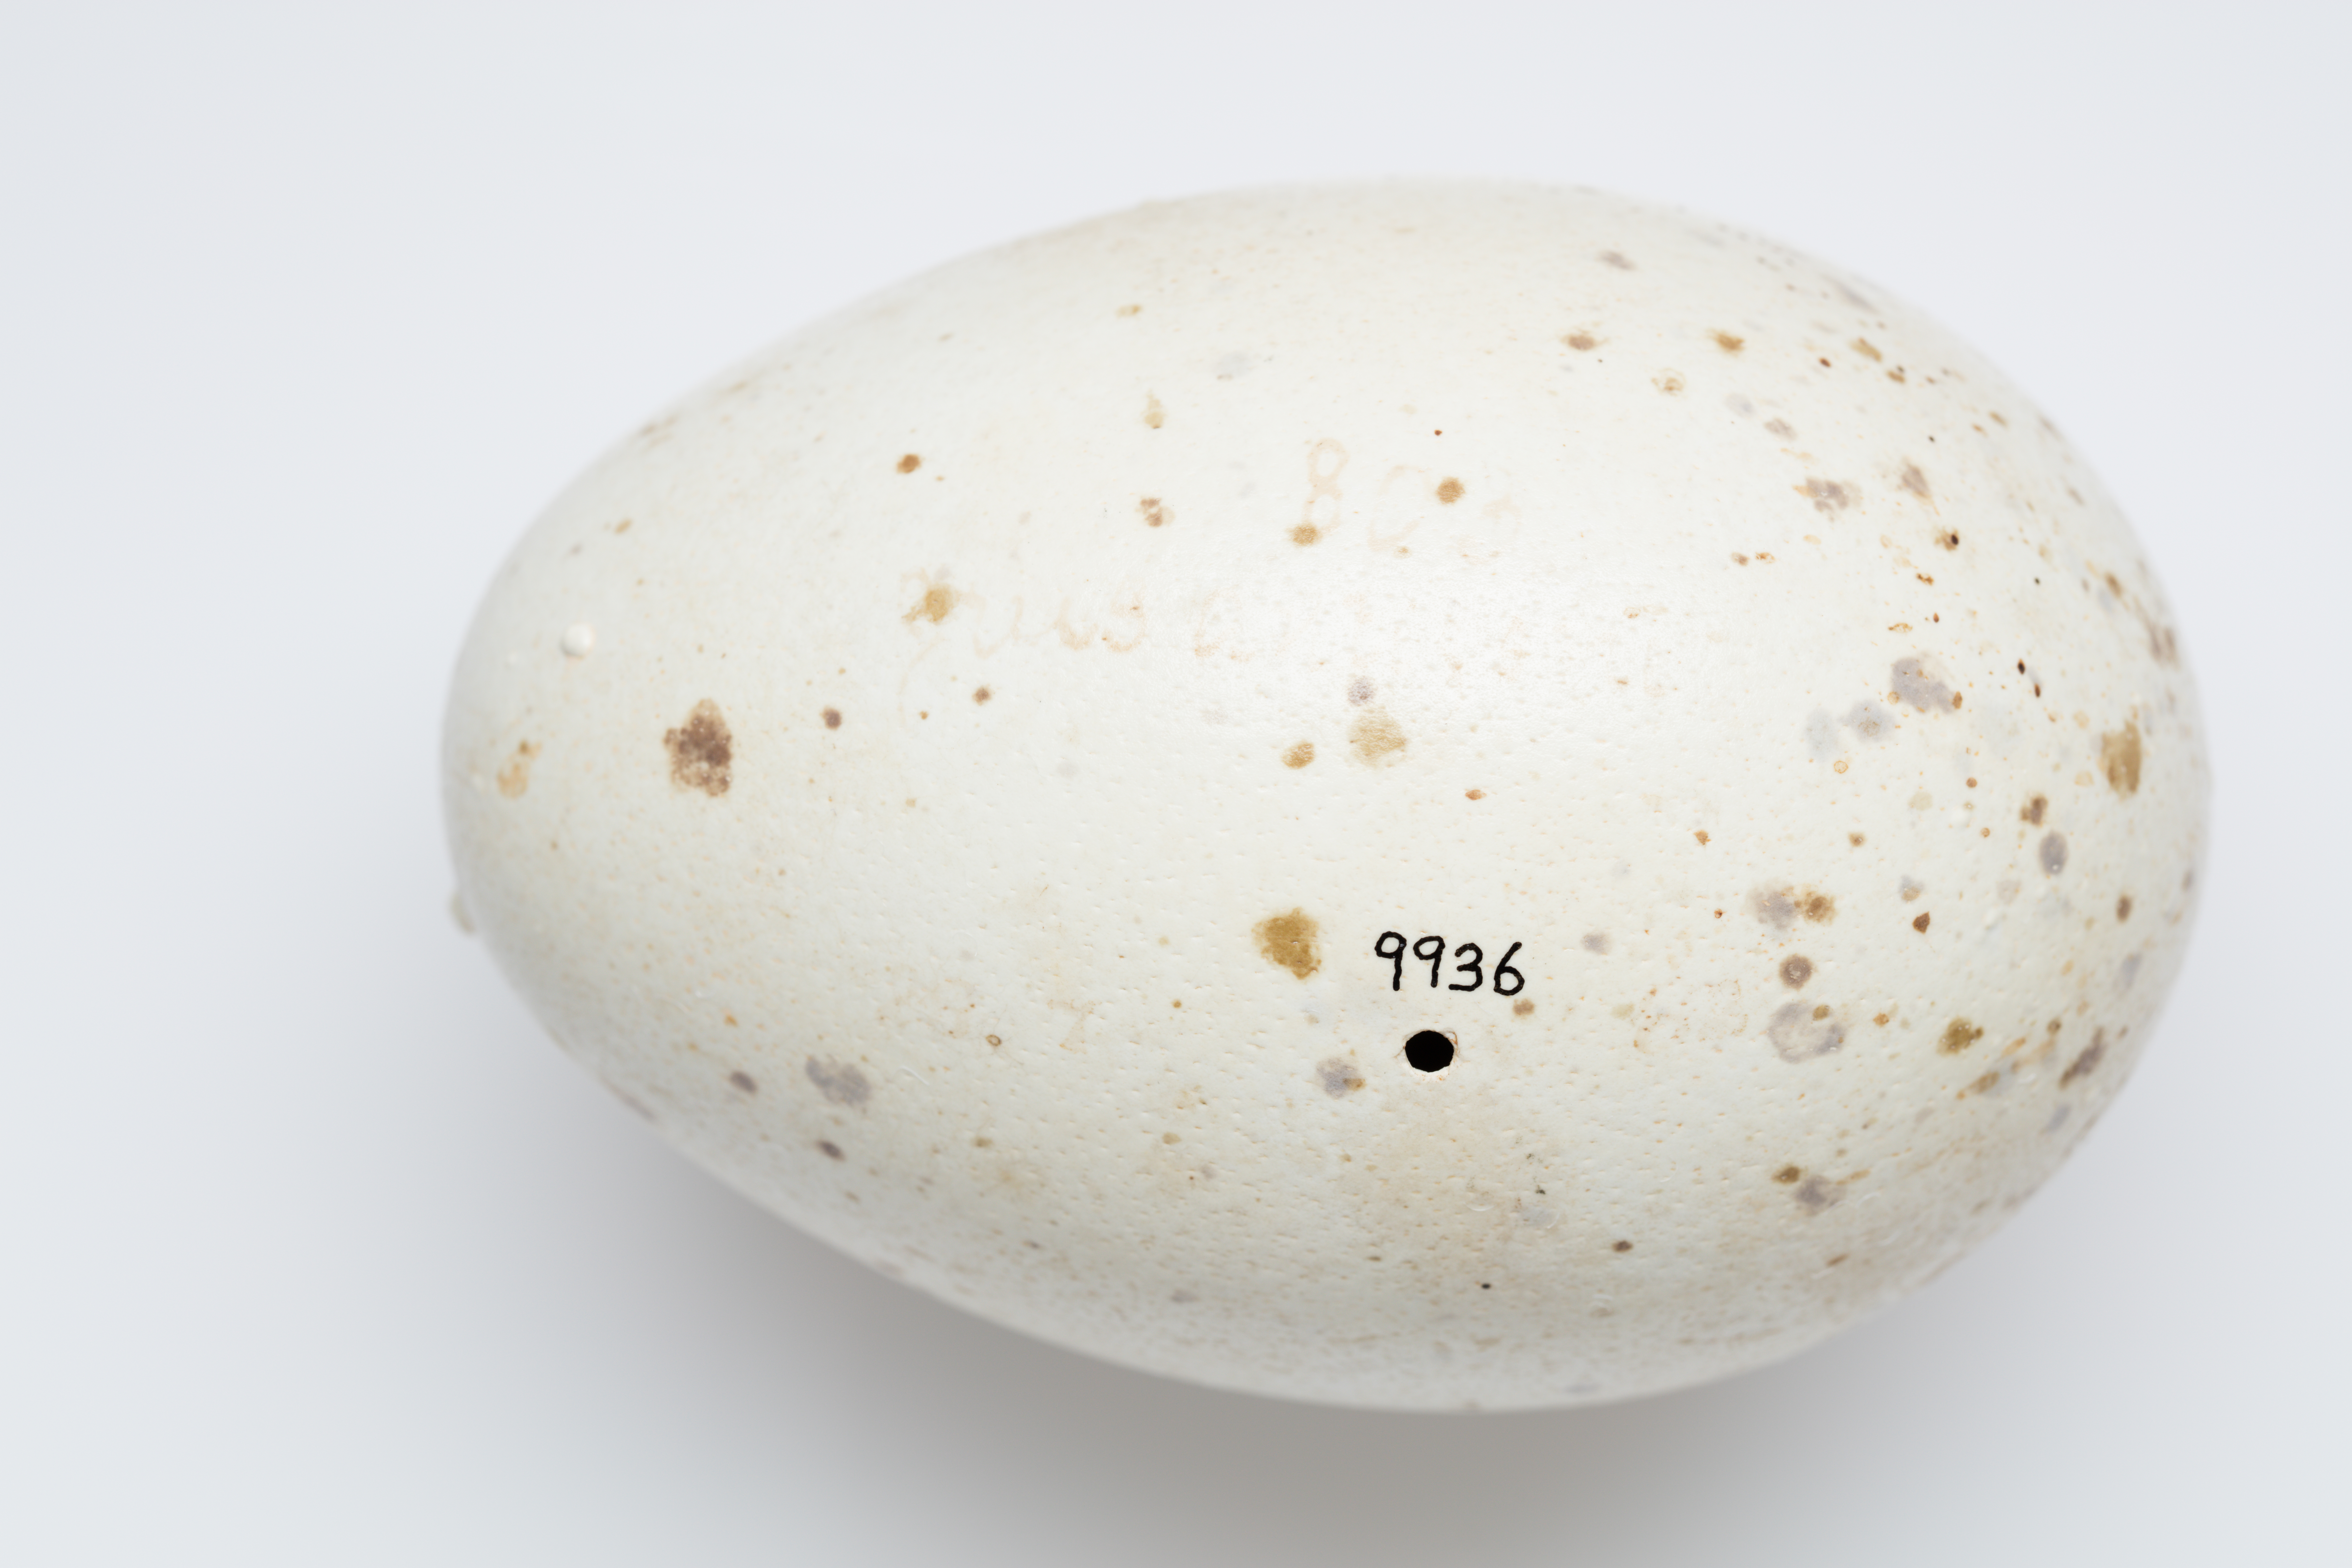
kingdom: Animalia
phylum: Chordata
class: Aves
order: Gruiformes
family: Gruidae
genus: Grus
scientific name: Grus antigone
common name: Sarus crane
